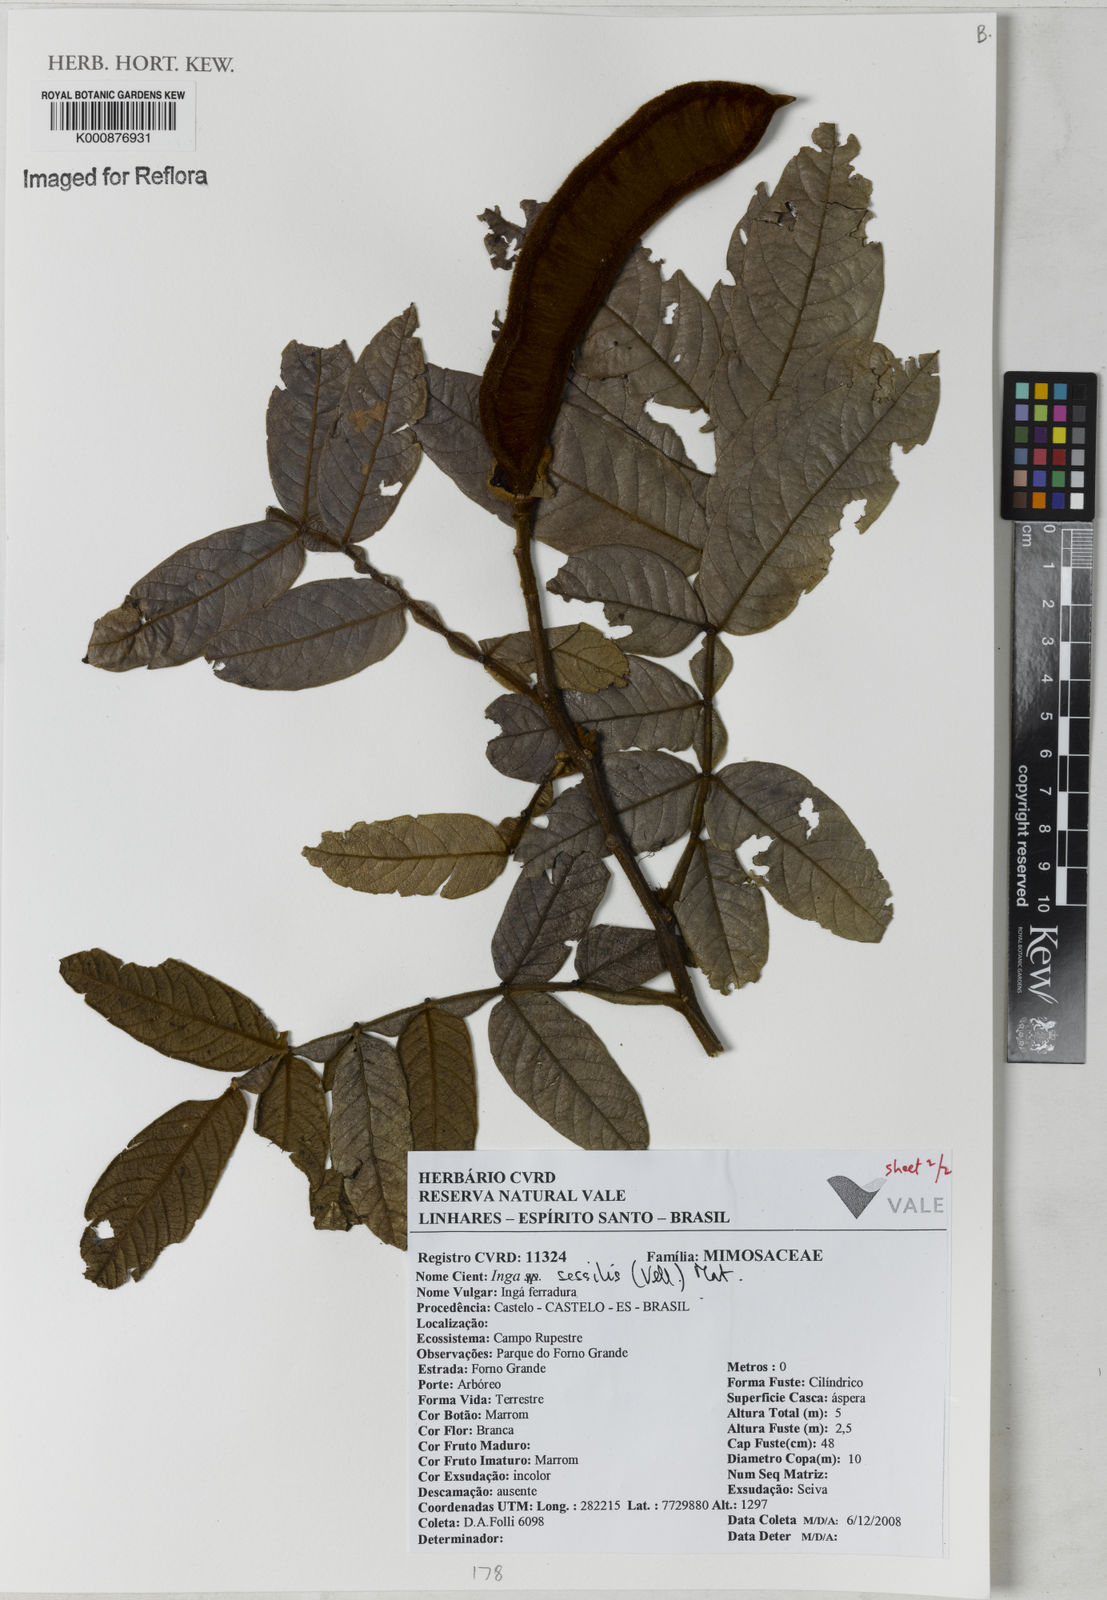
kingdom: Plantae
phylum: Tracheophyta
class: Magnoliopsida
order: Fabales
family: Fabaceae
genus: Inga
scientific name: Inga sessilis
